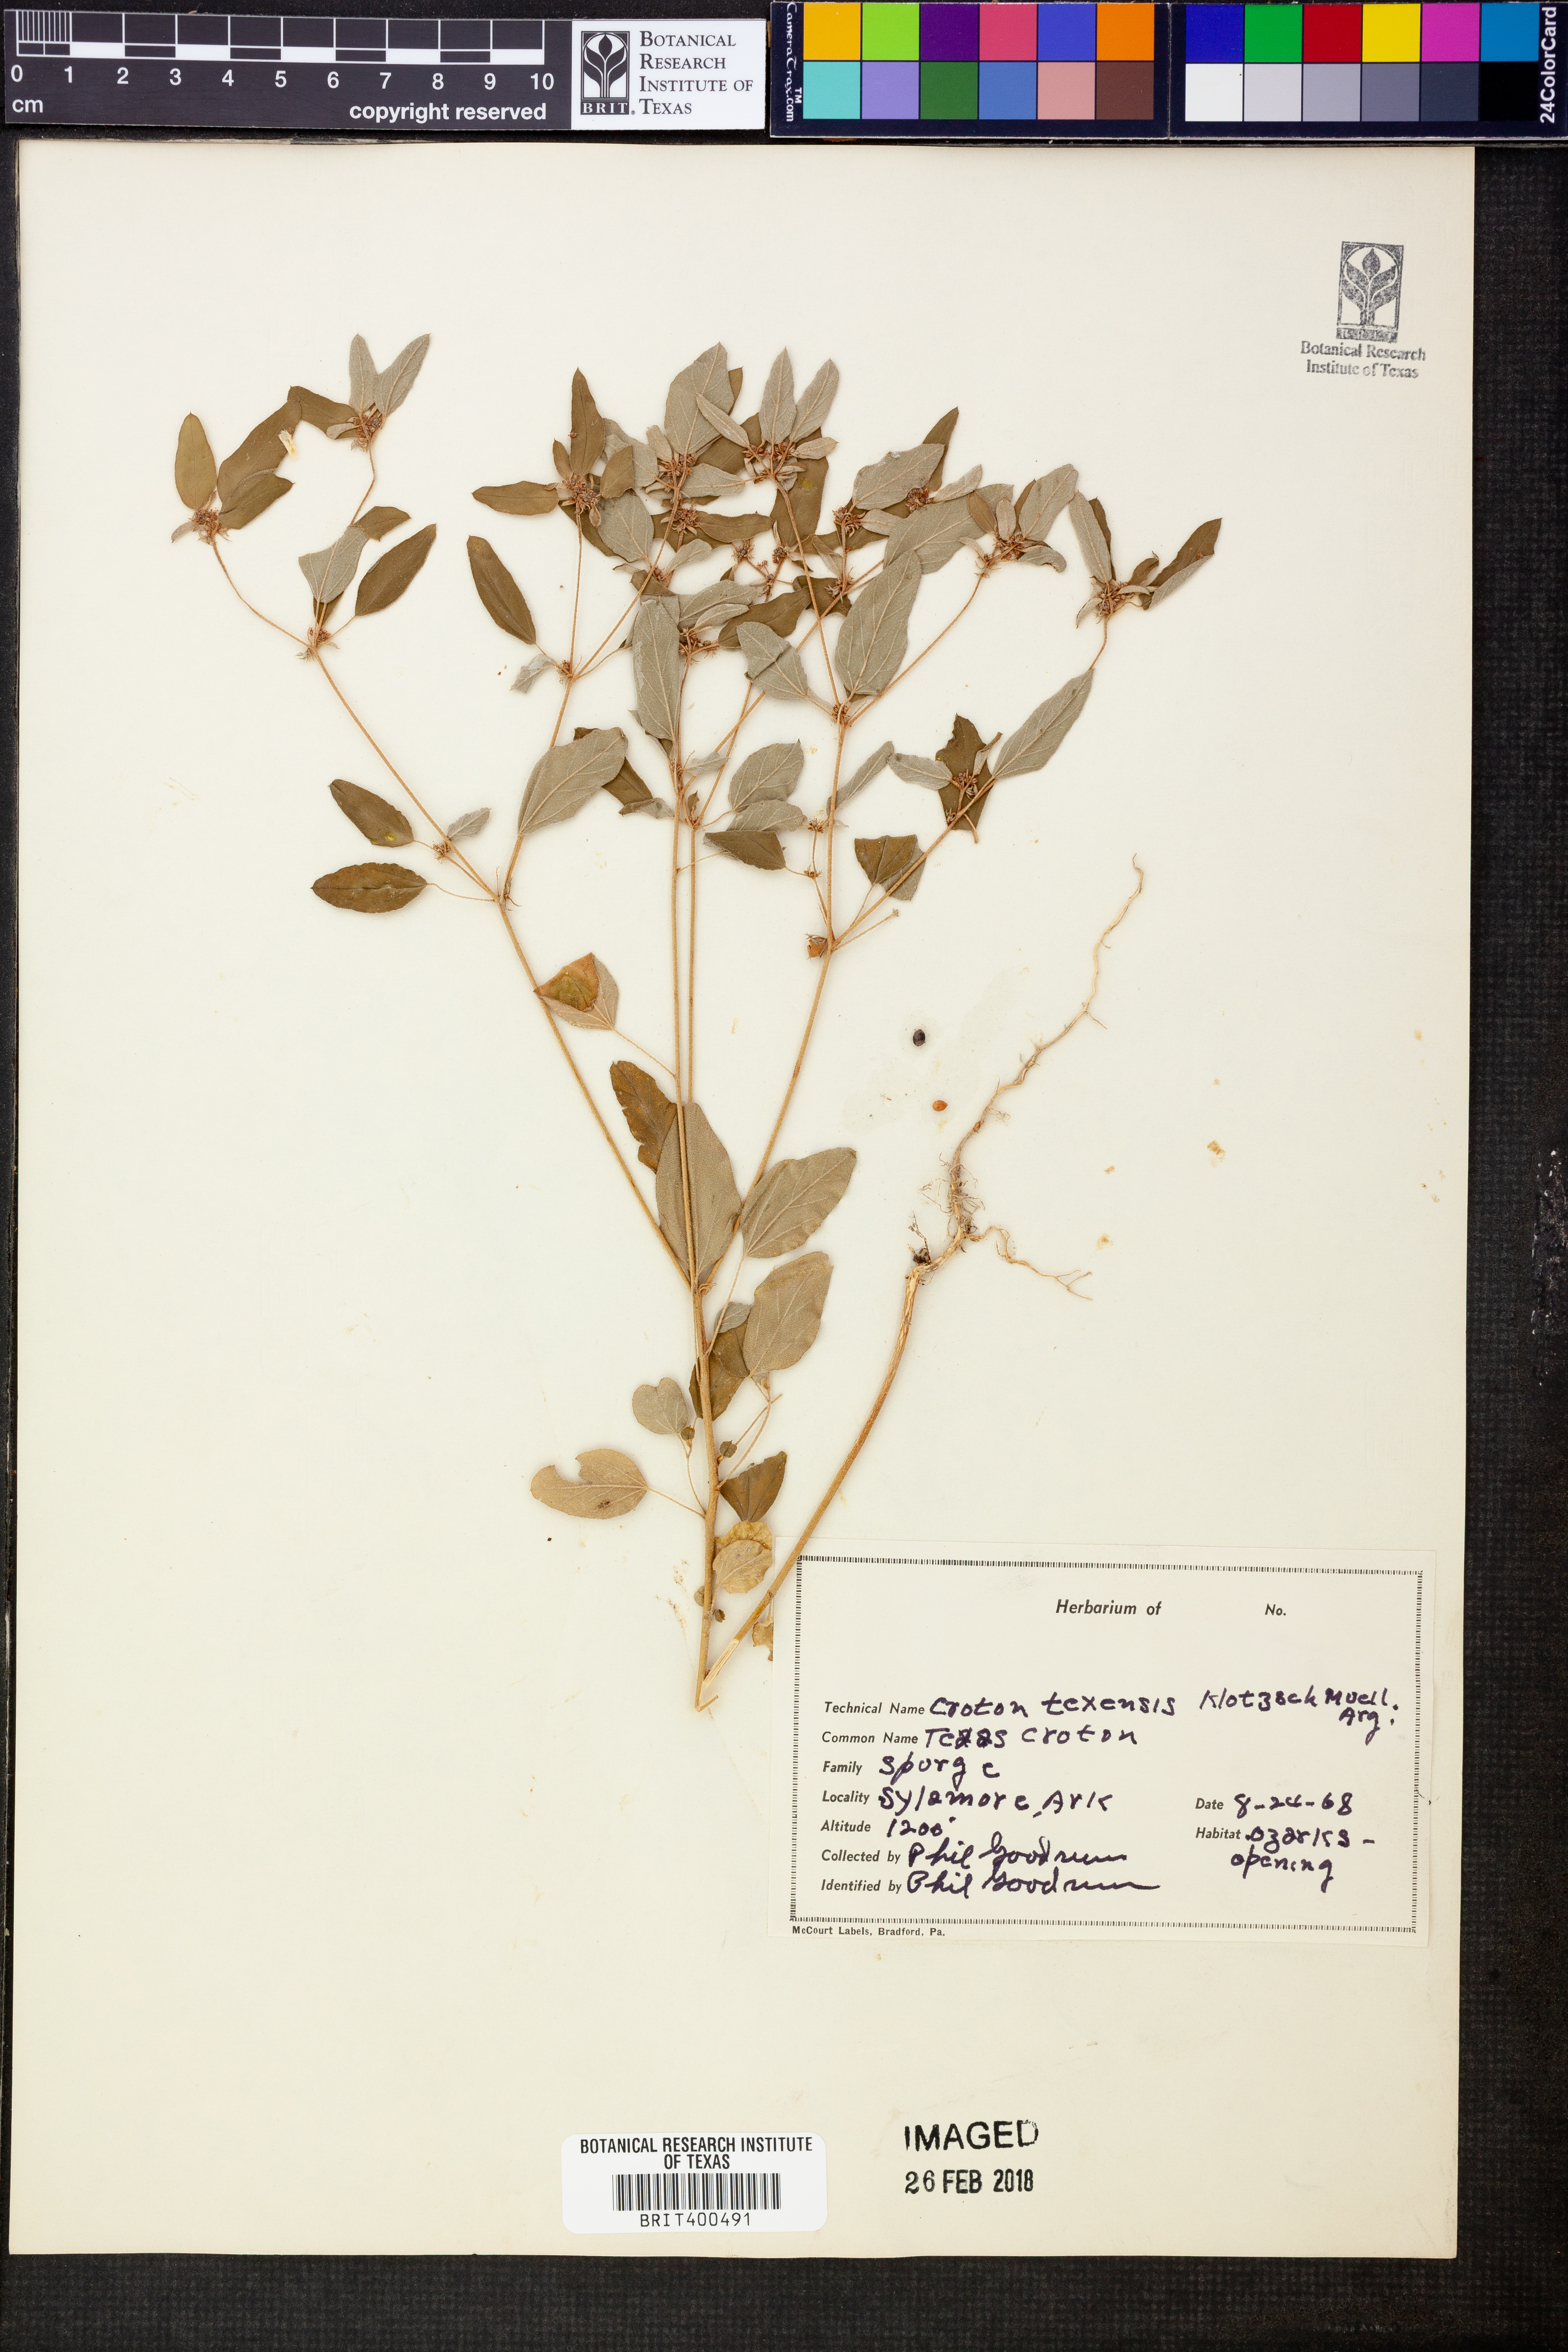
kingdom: Plantae
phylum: Tracheophyta
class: Magnoliopsida
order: Malpighiales
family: Euphorbiaceae
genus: Croton
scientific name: Croton texensis
